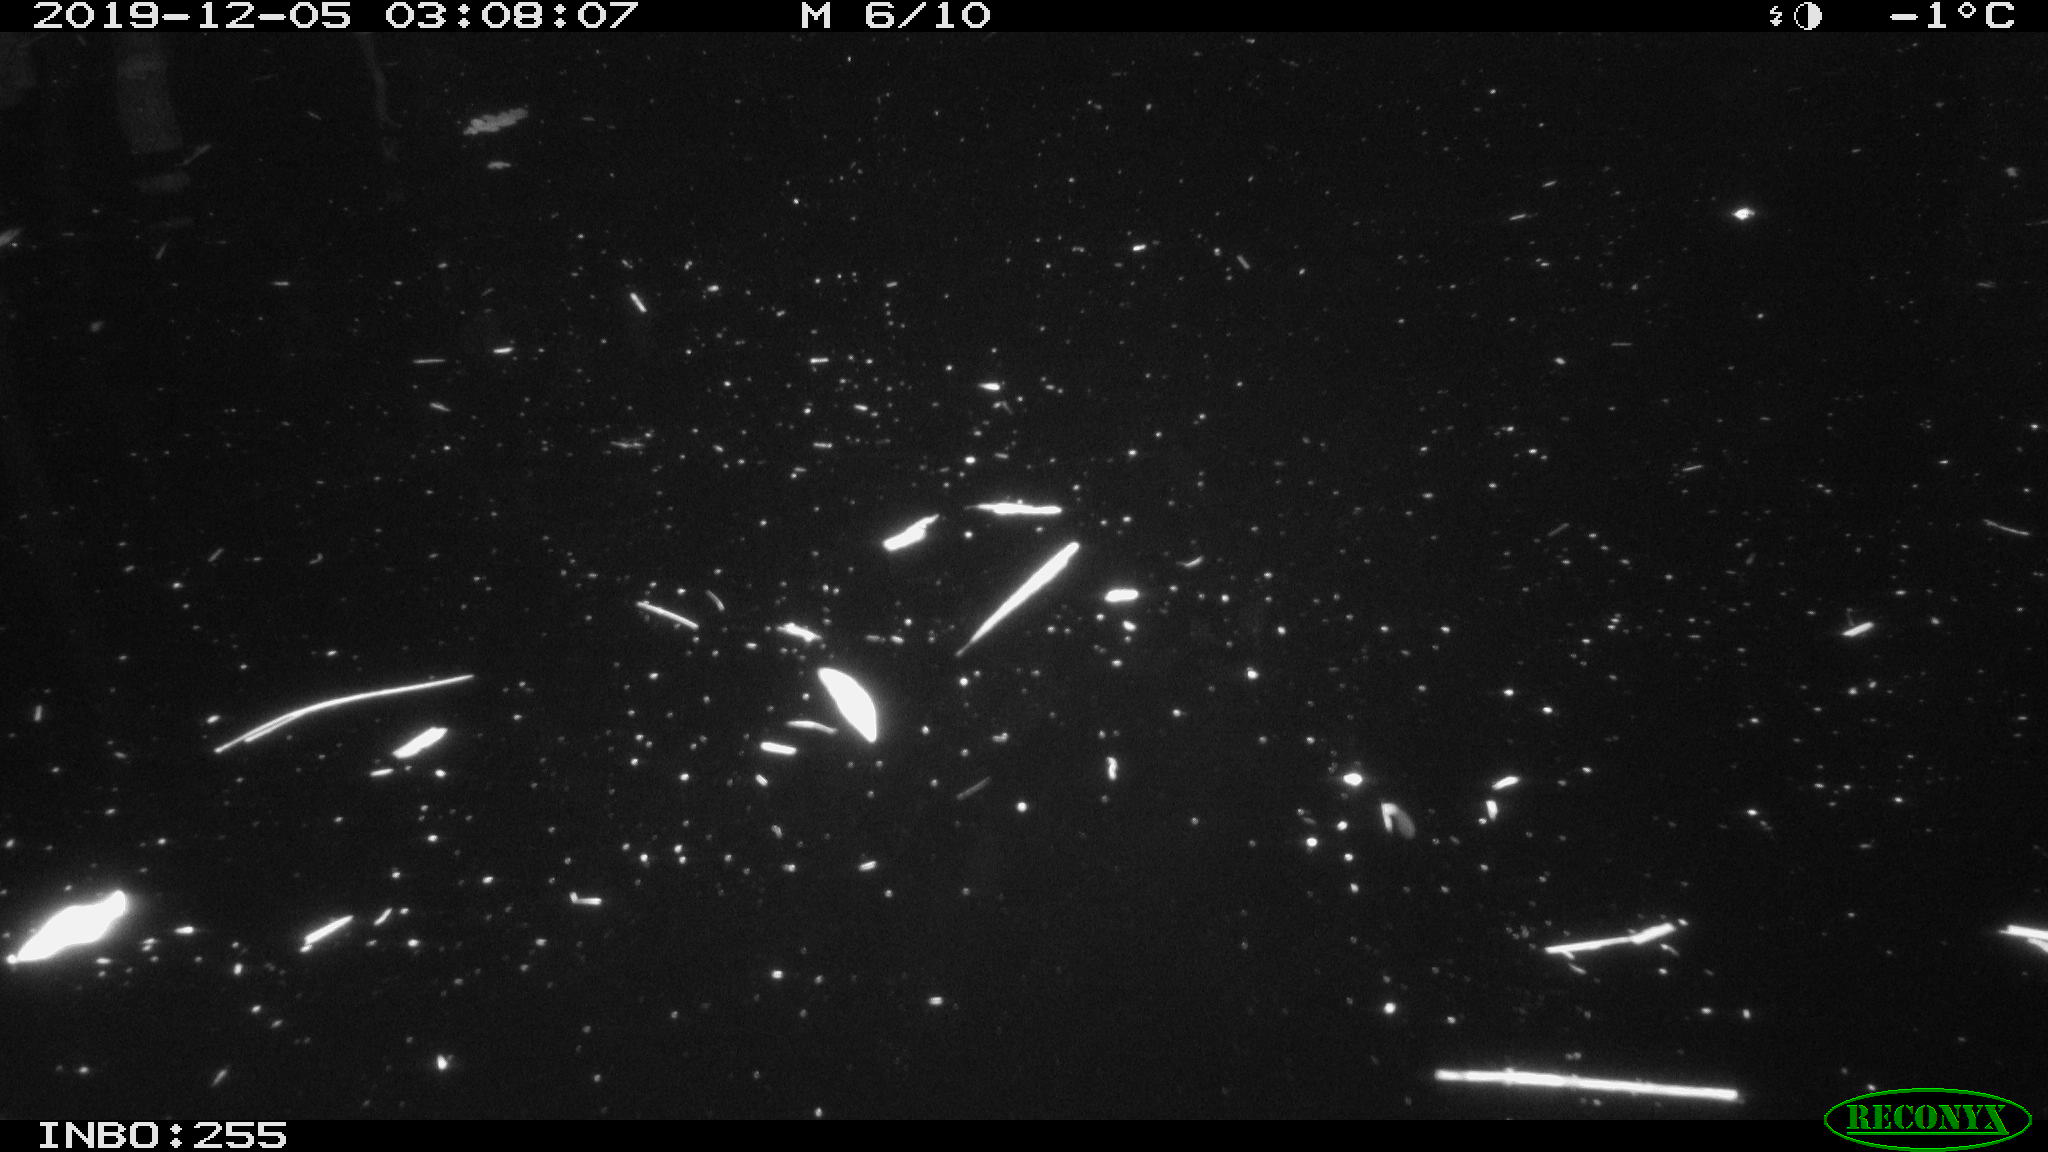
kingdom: Animalia
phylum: Chordata
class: Aves
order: Anseriformes
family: Anatidae
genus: Anas
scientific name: Anas platyrhynchos
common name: Mallard
